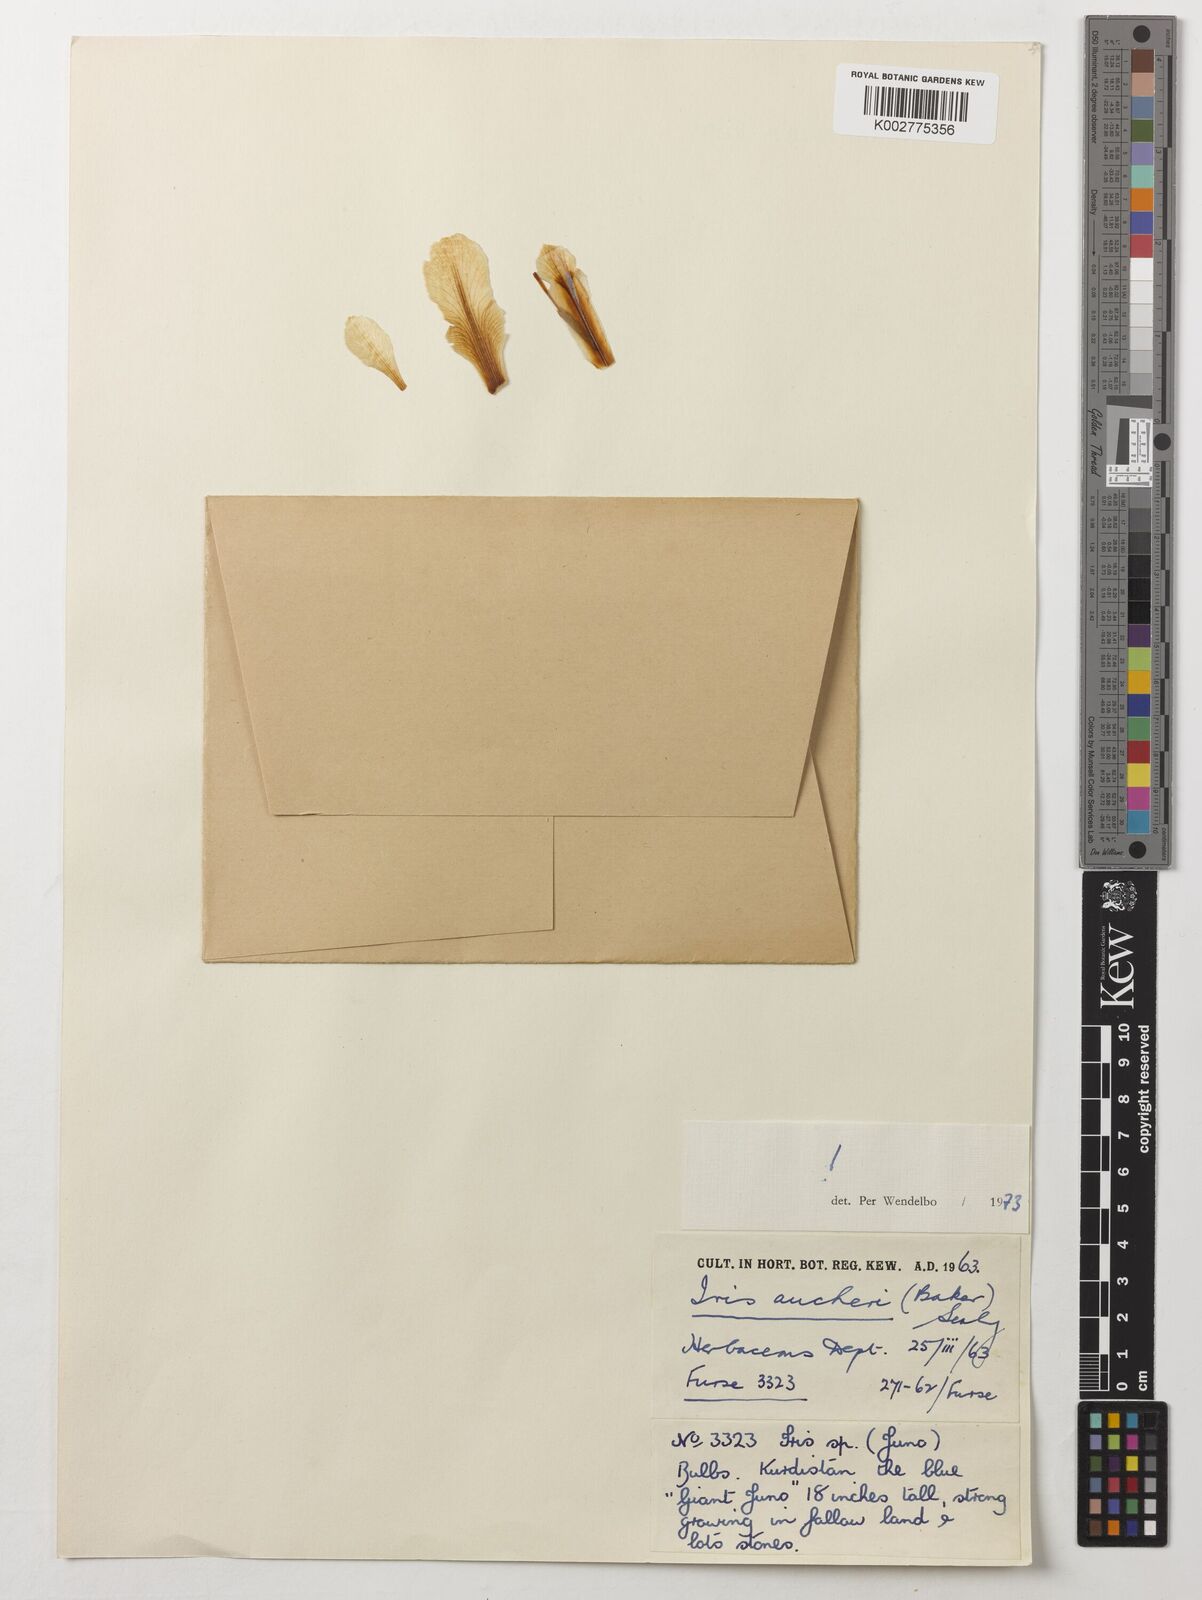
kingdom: Plantae
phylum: Tracheophyta
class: Liliopsida
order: Asparagales
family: Iridaceae
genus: Iris
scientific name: Iris aucheri
